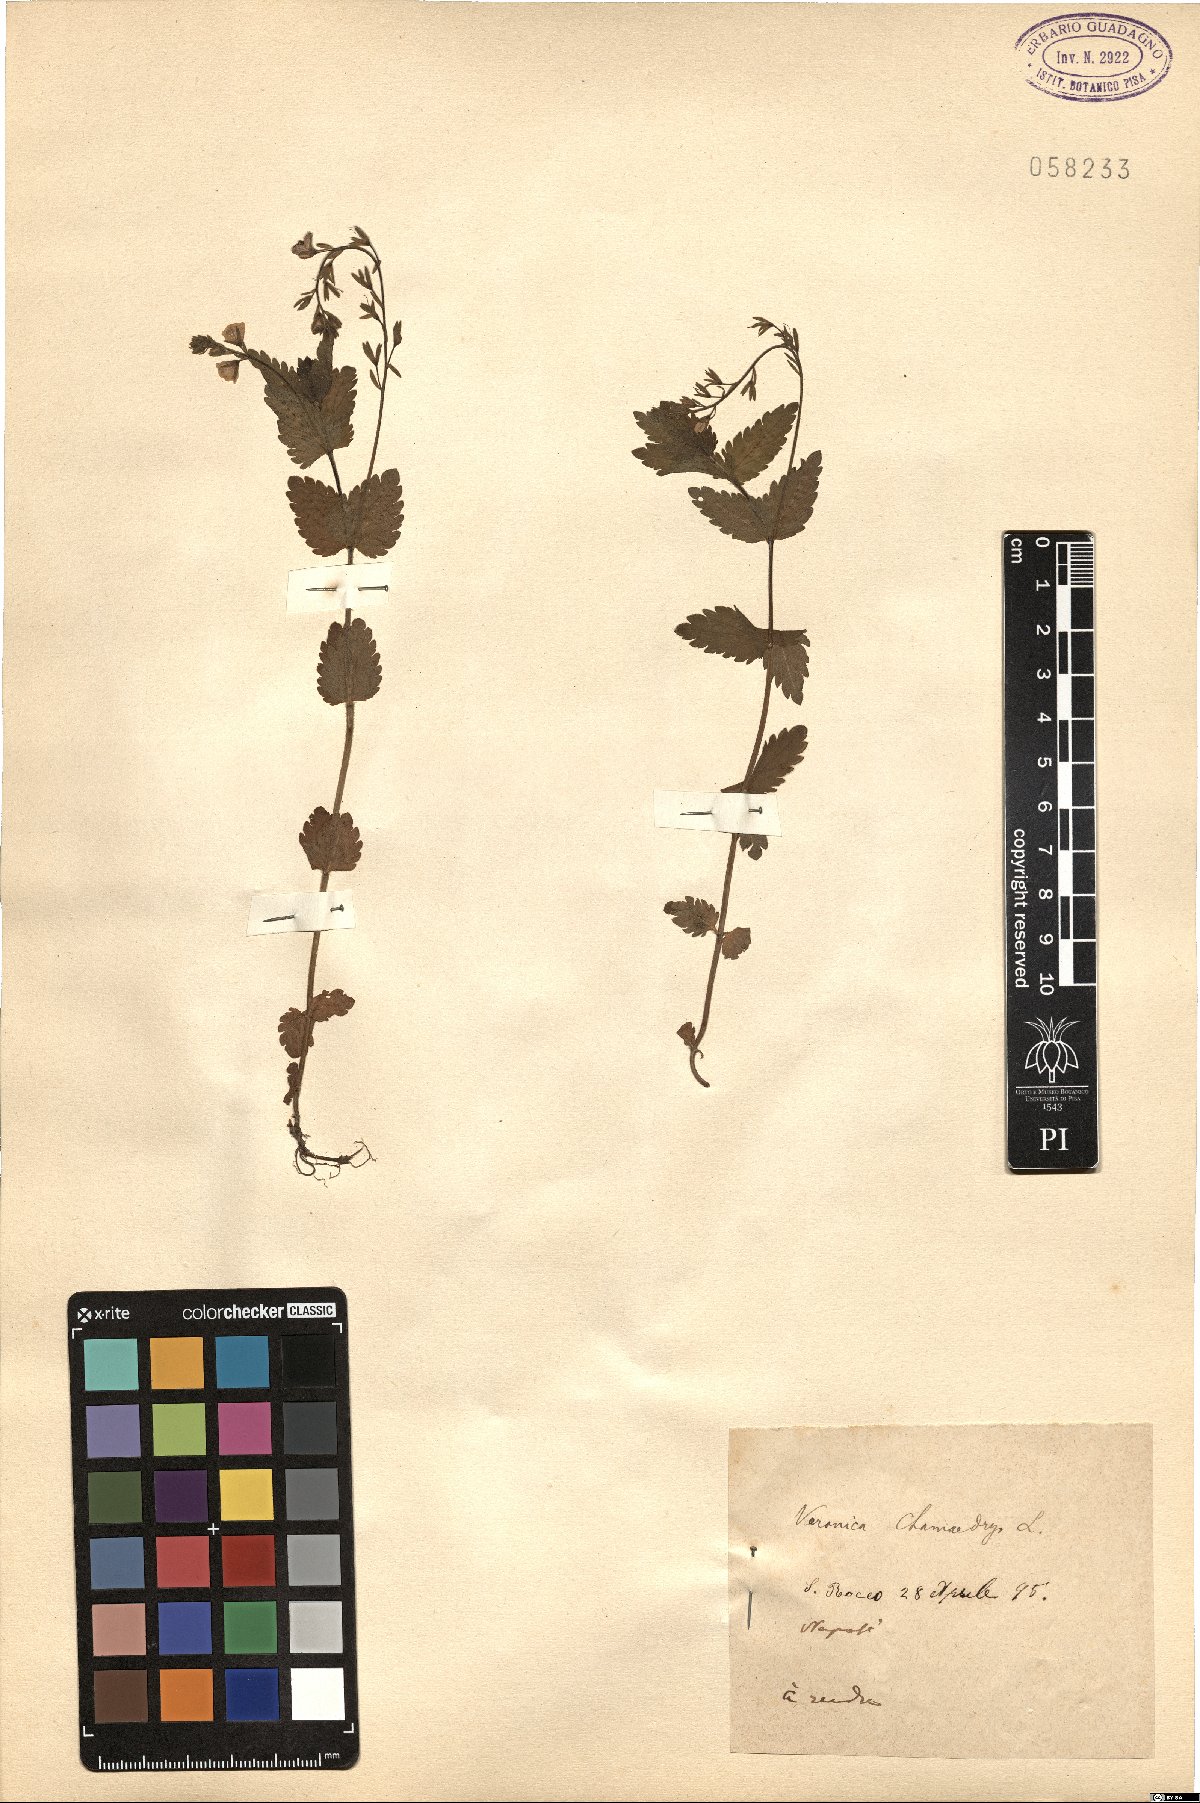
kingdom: Plantae
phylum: Tracheophyta
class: Magnoliopsida
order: Lamiales
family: Plantaginaceae
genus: Veronica
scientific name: Veronica chamaedrys
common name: Germander speedwell
